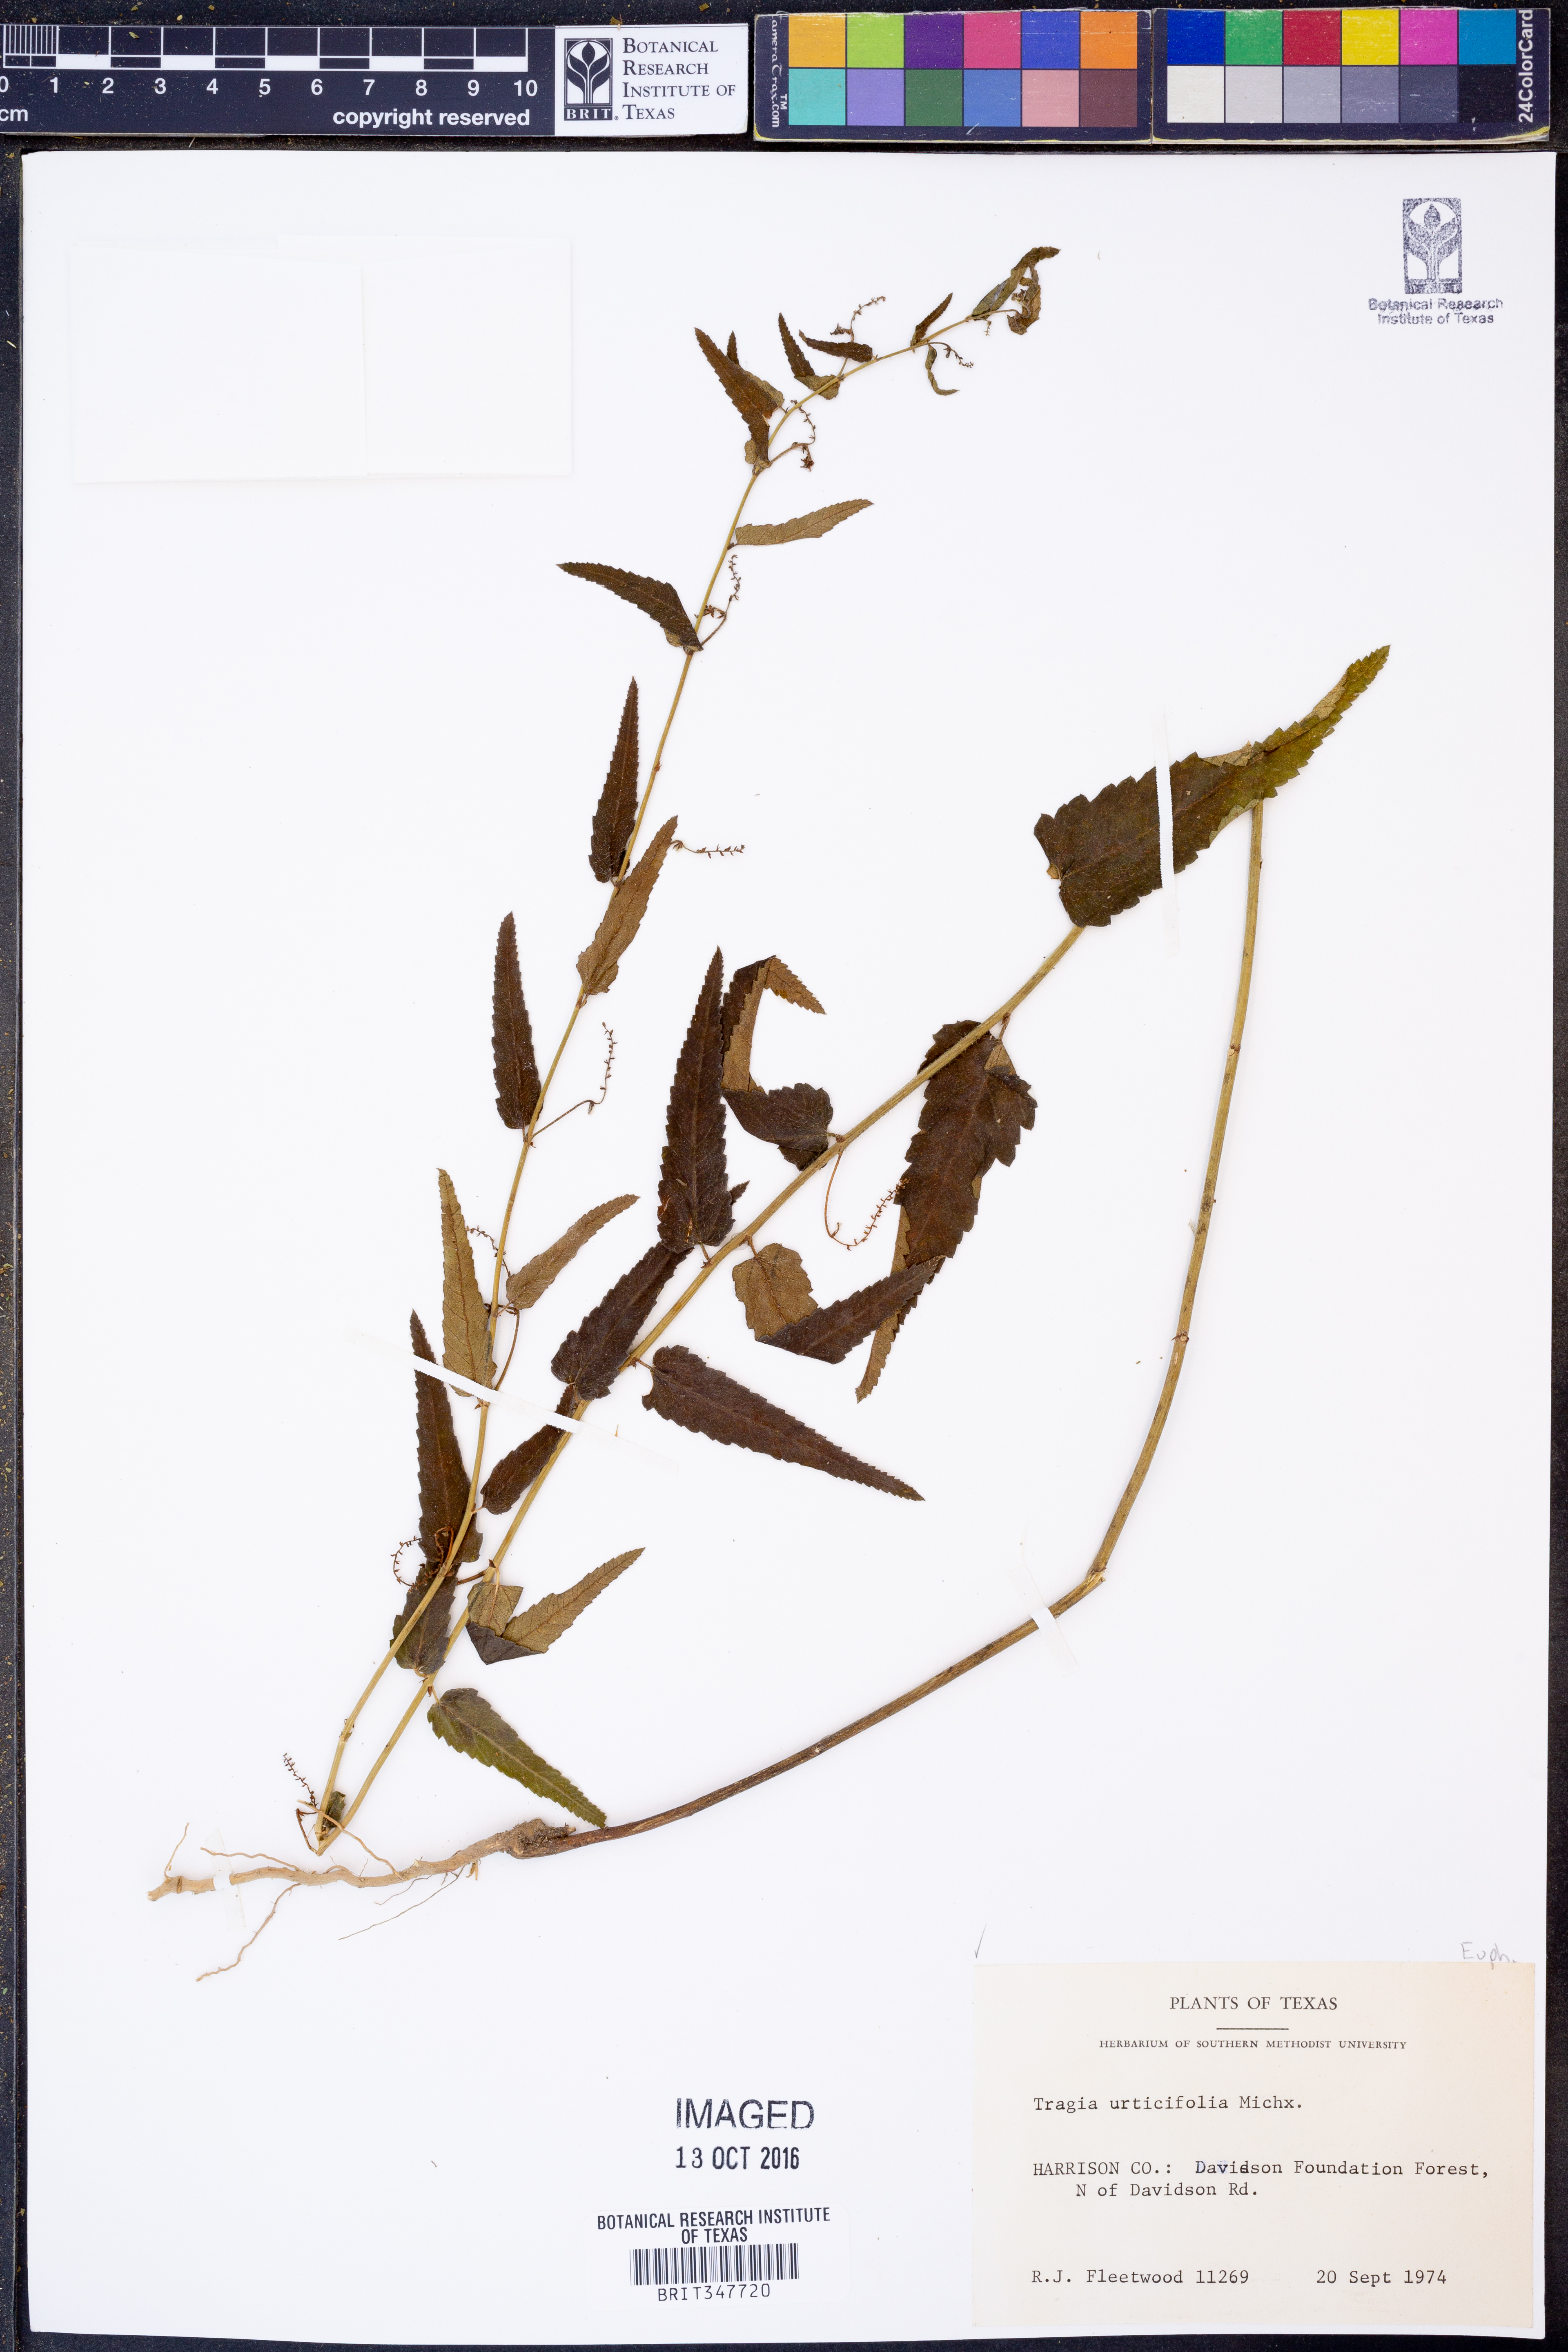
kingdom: Plantae
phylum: Tracheophyta
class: Magnoliopsida
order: Malpighiales
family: Euphorbiaceae
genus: Tragia
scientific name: Tragia urticifolia
